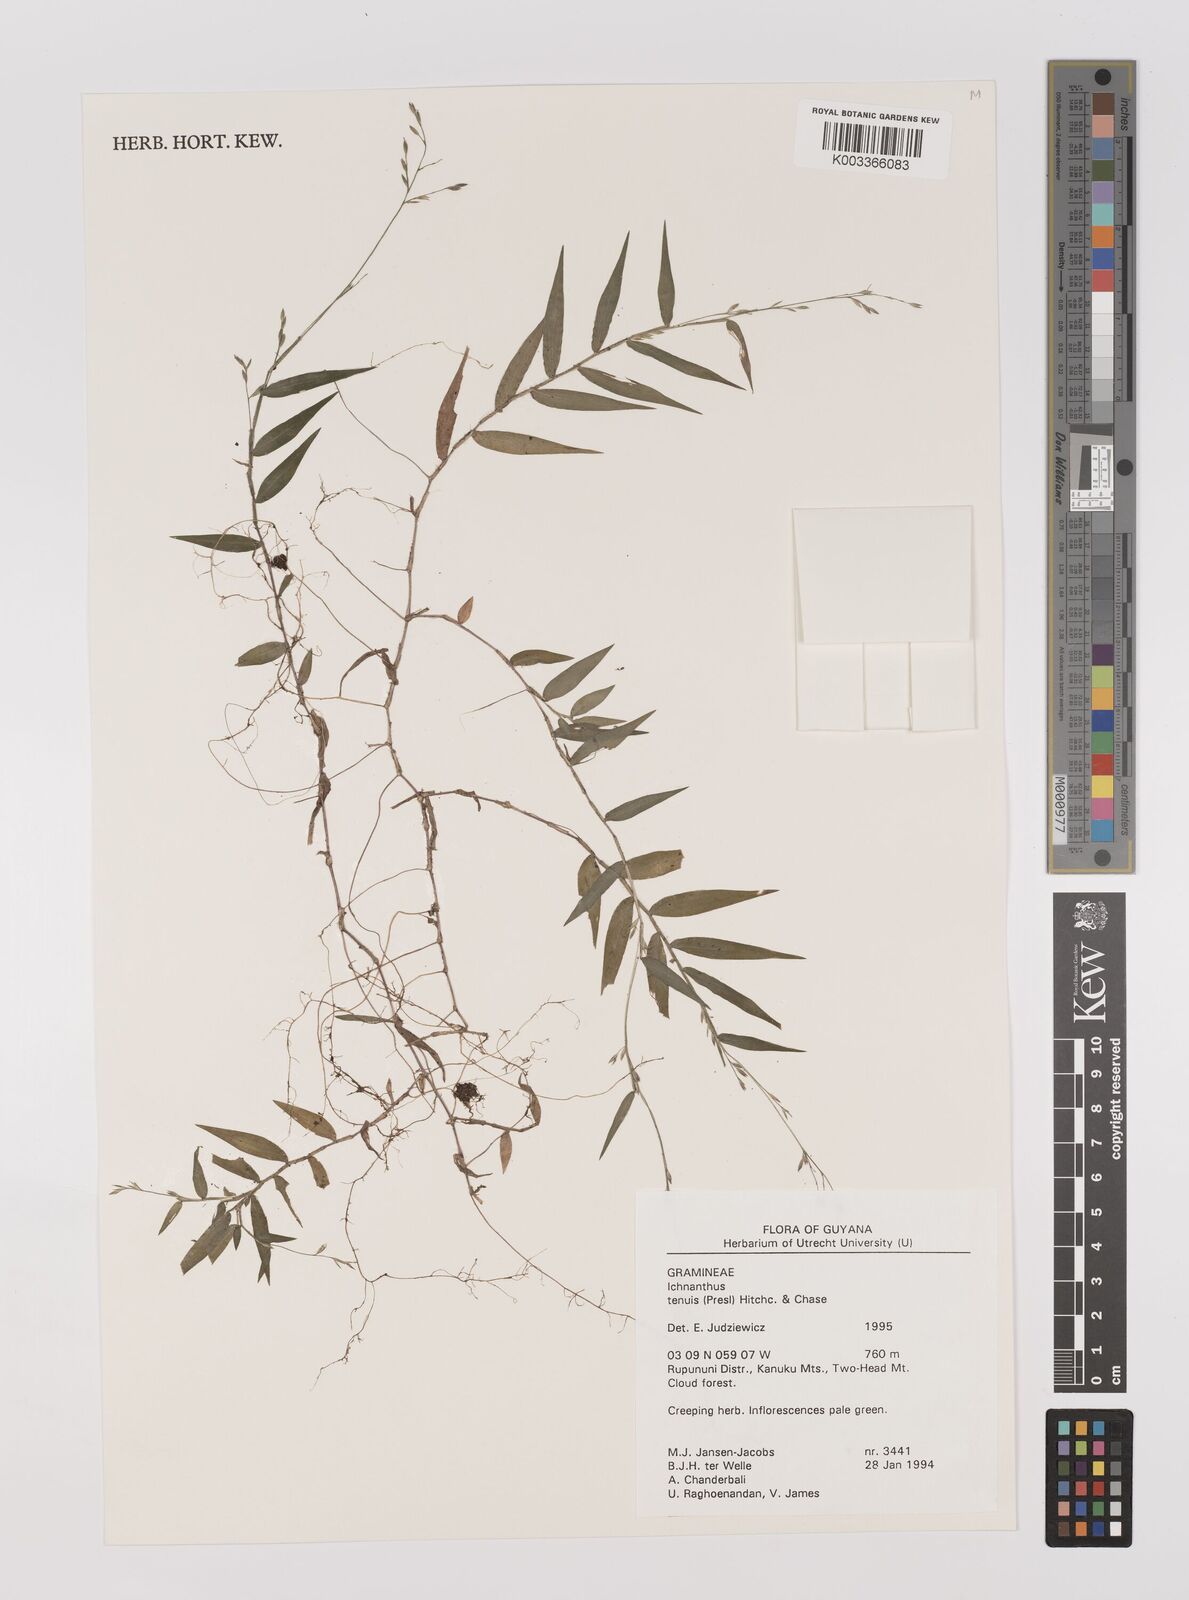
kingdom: Plantae
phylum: Tracheophyta
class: Liliopsida
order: Poales
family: Poaceae
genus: Ichnanthus
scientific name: Ichnanthus tenuis
